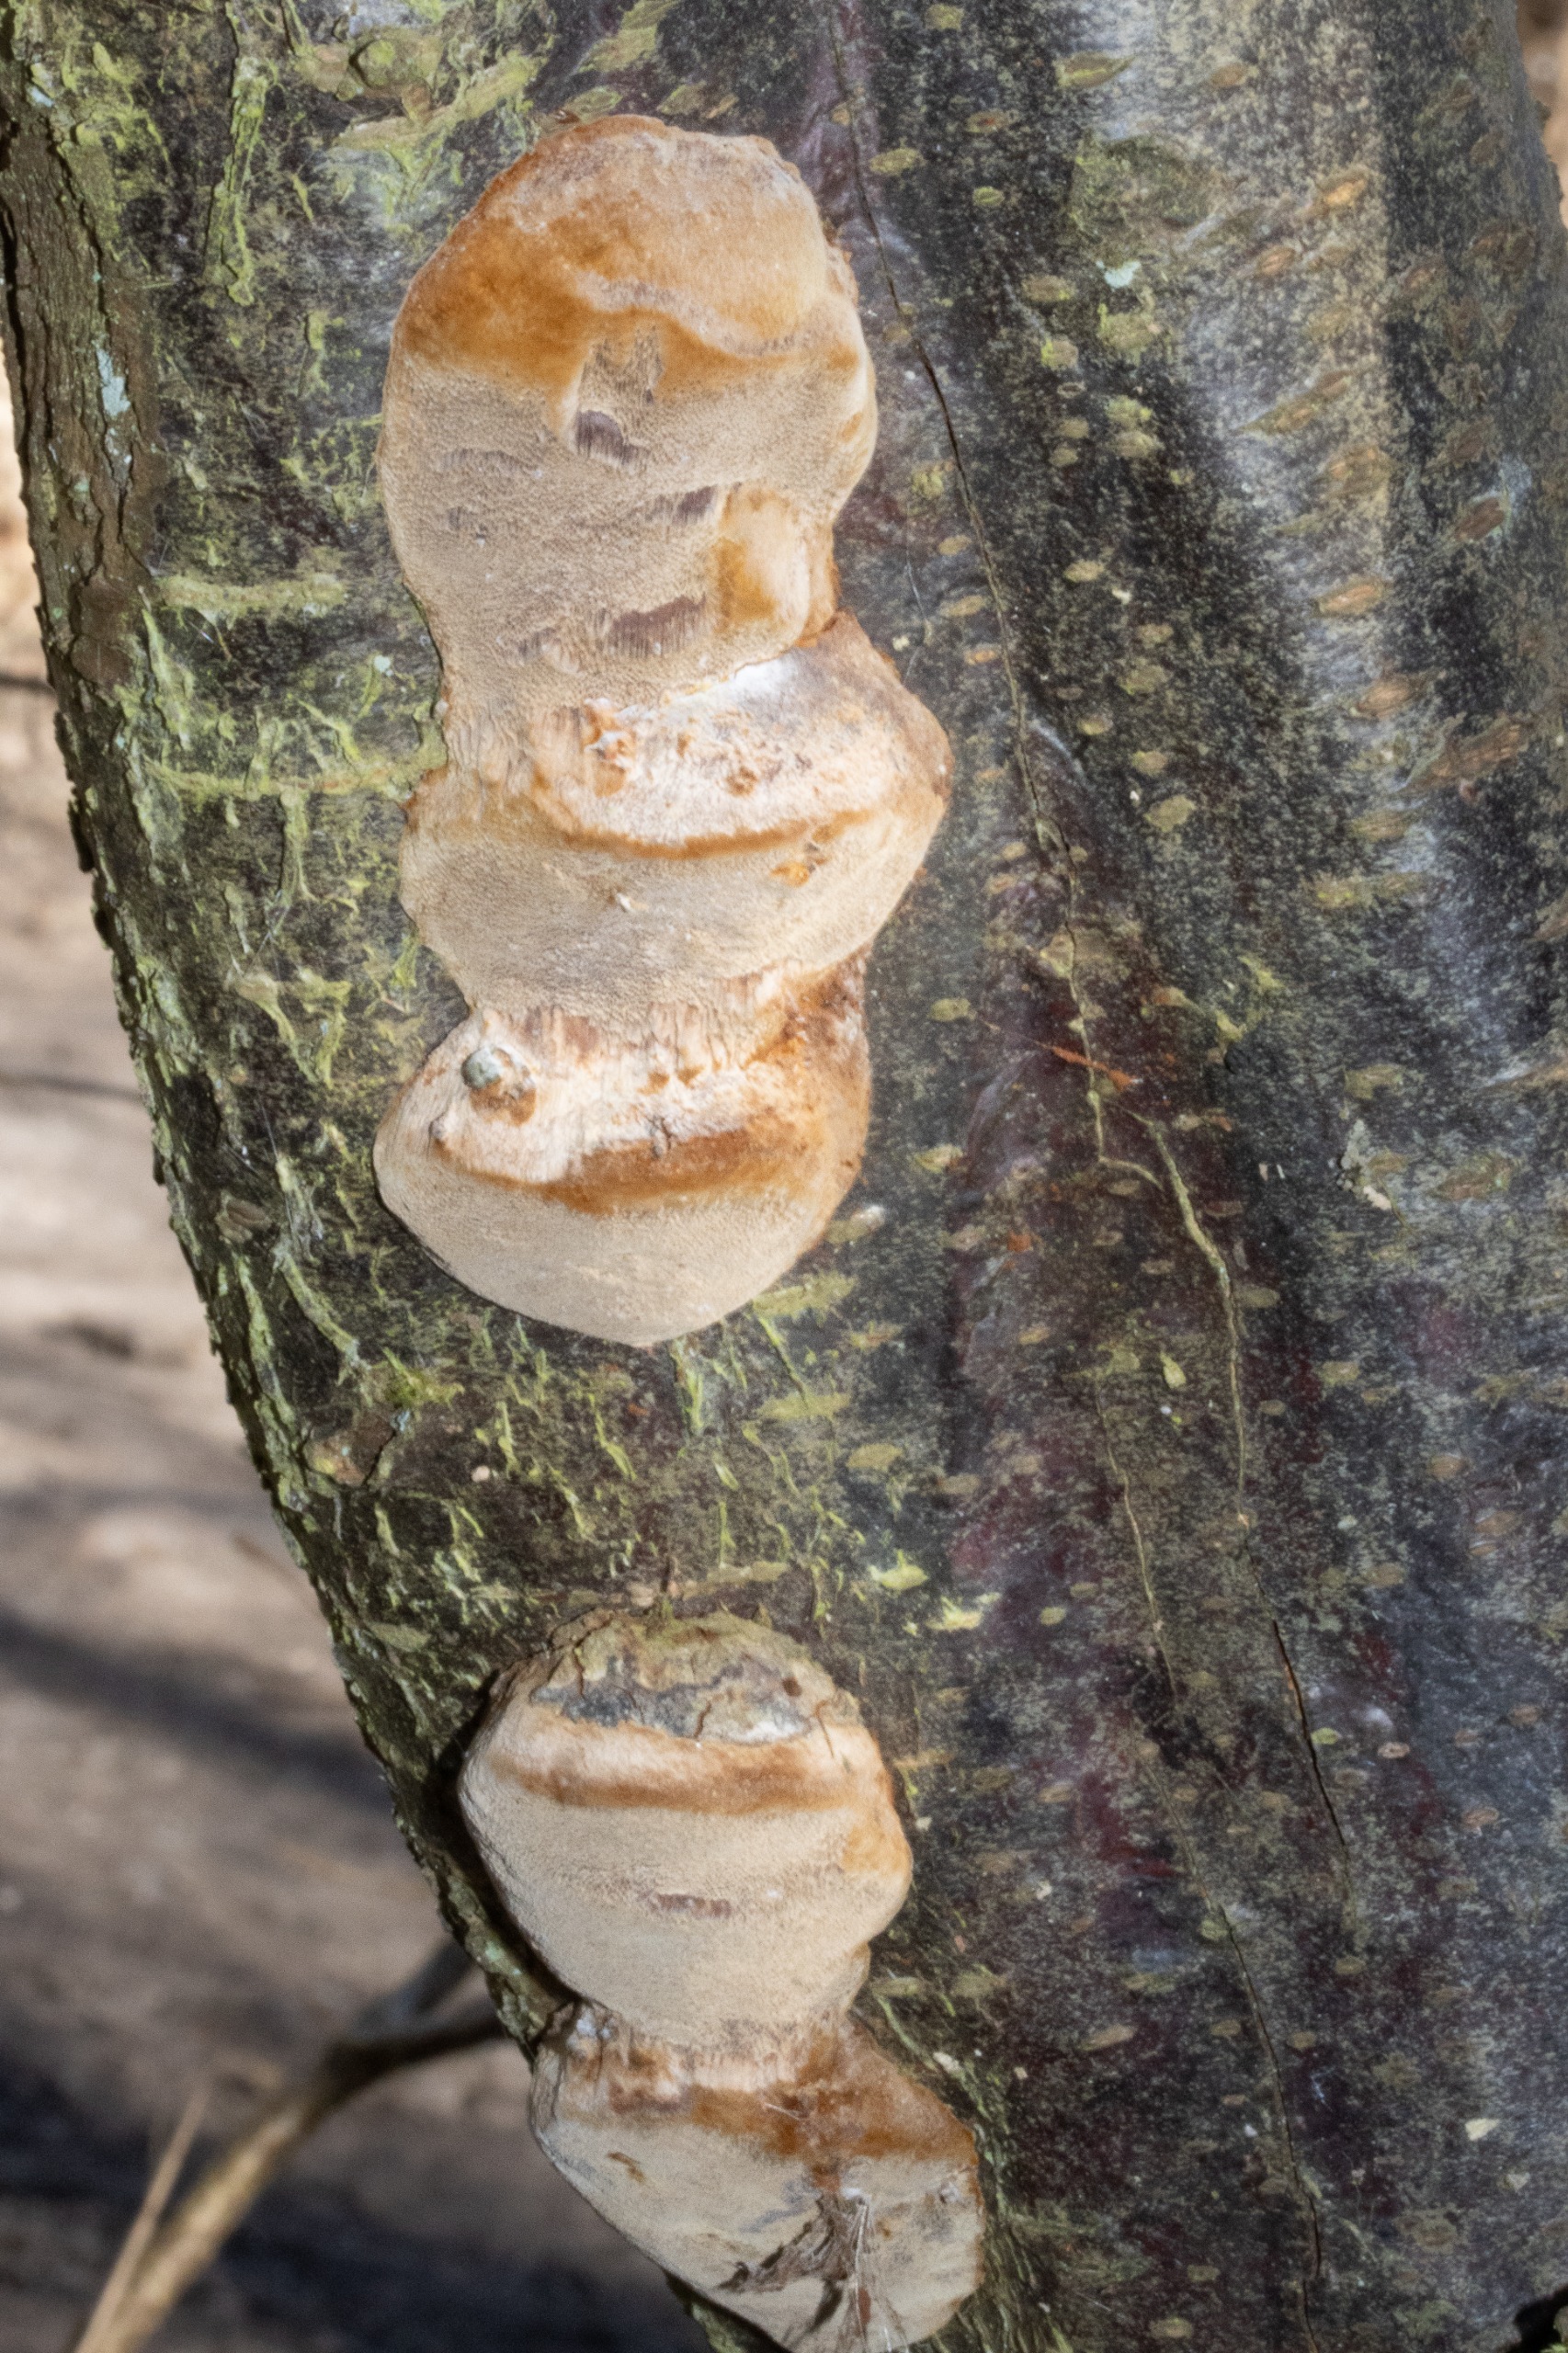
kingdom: Fungi
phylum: Basidiomycota
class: Agaricomycetes
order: Hymenochaetales
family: Hymenochaetaceae
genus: Phellinus
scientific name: Phellinus pomaceus
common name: Blomme-ildporesvamp
